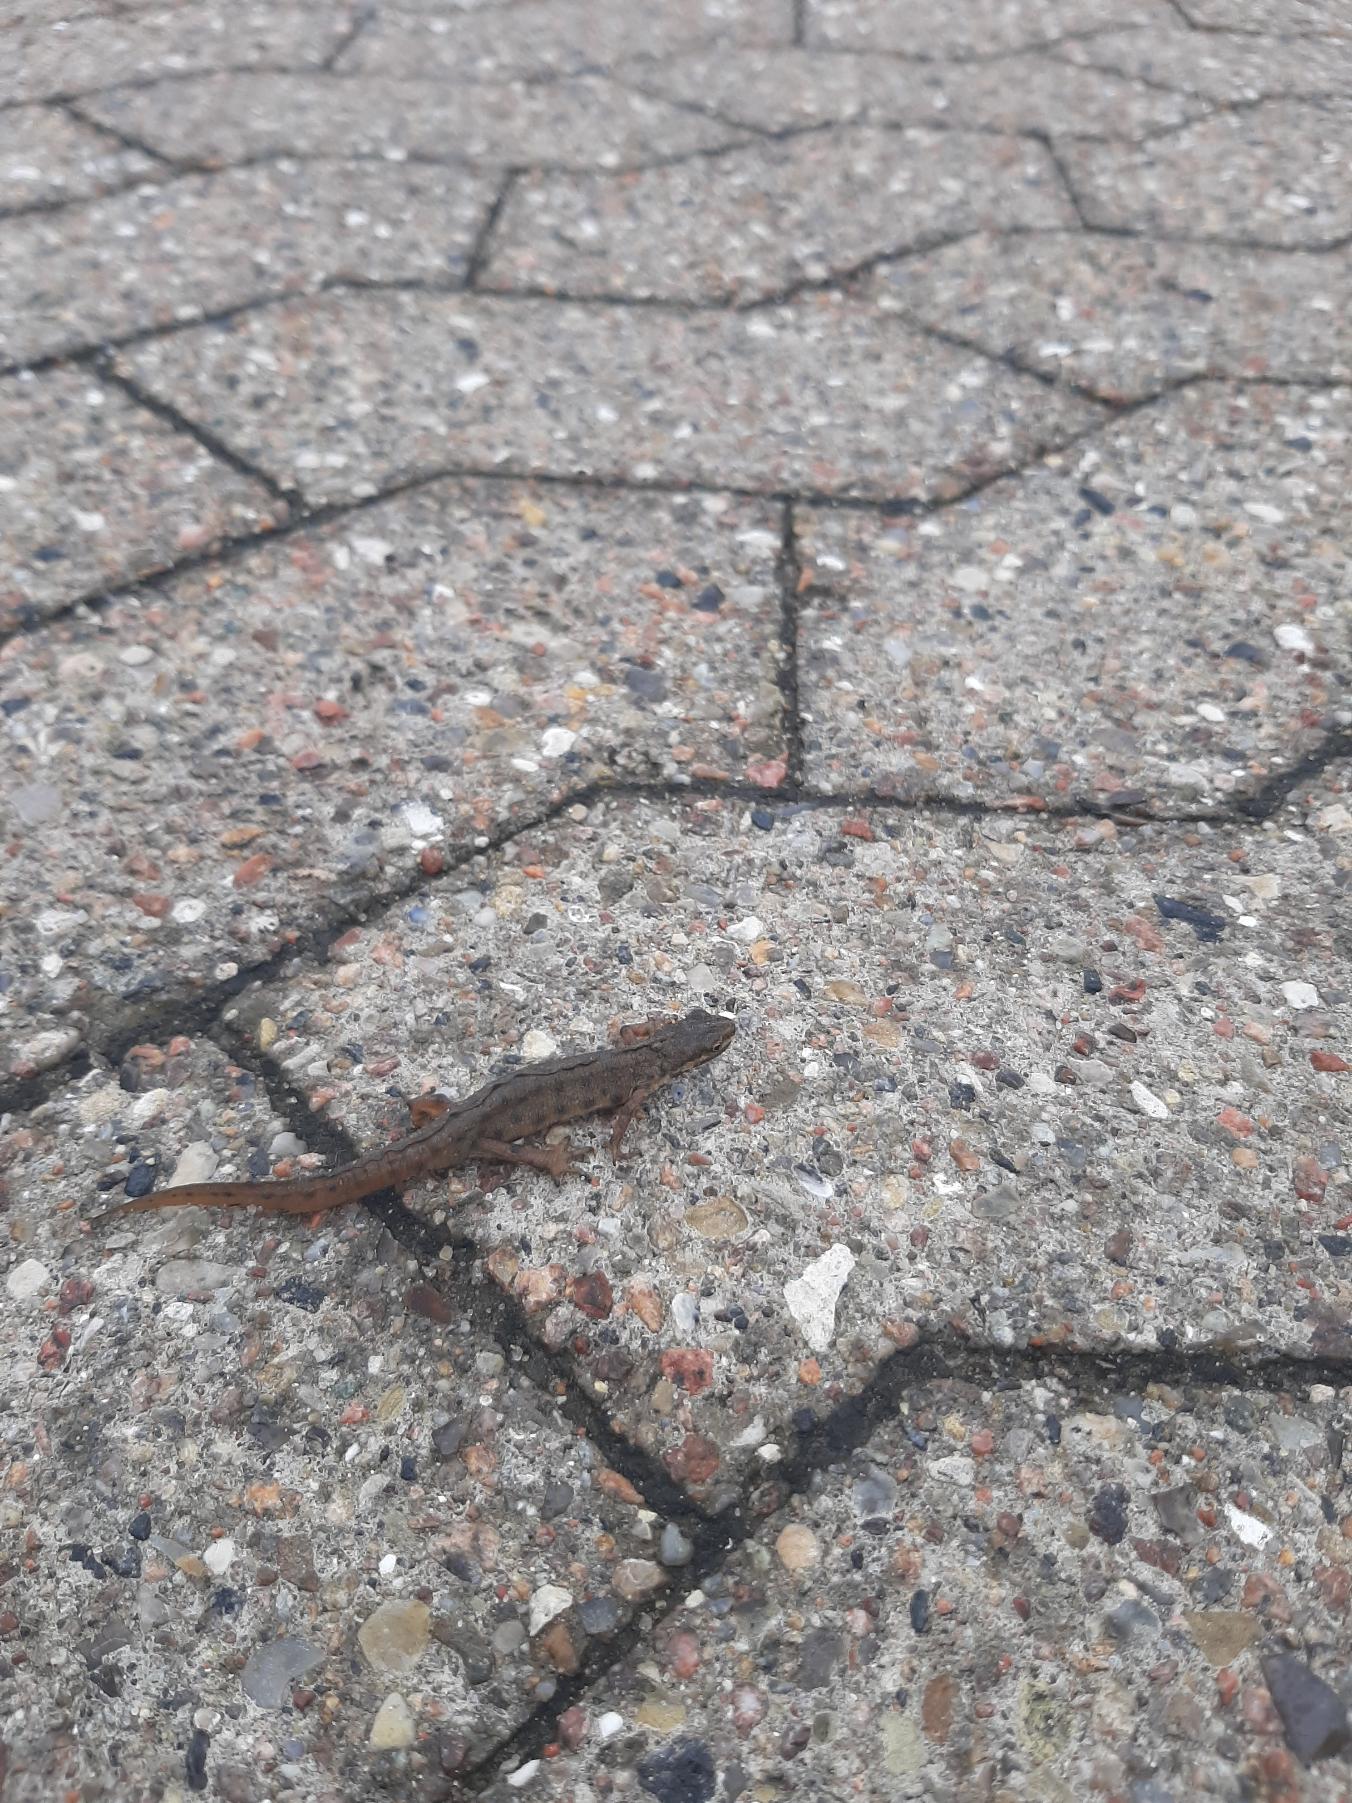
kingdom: Animalia
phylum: Chordata
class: Amphibia
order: Caudata
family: Salamandridae
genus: Lissotriton
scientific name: Lissotriton vulgaris
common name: Lille vandsalamander
